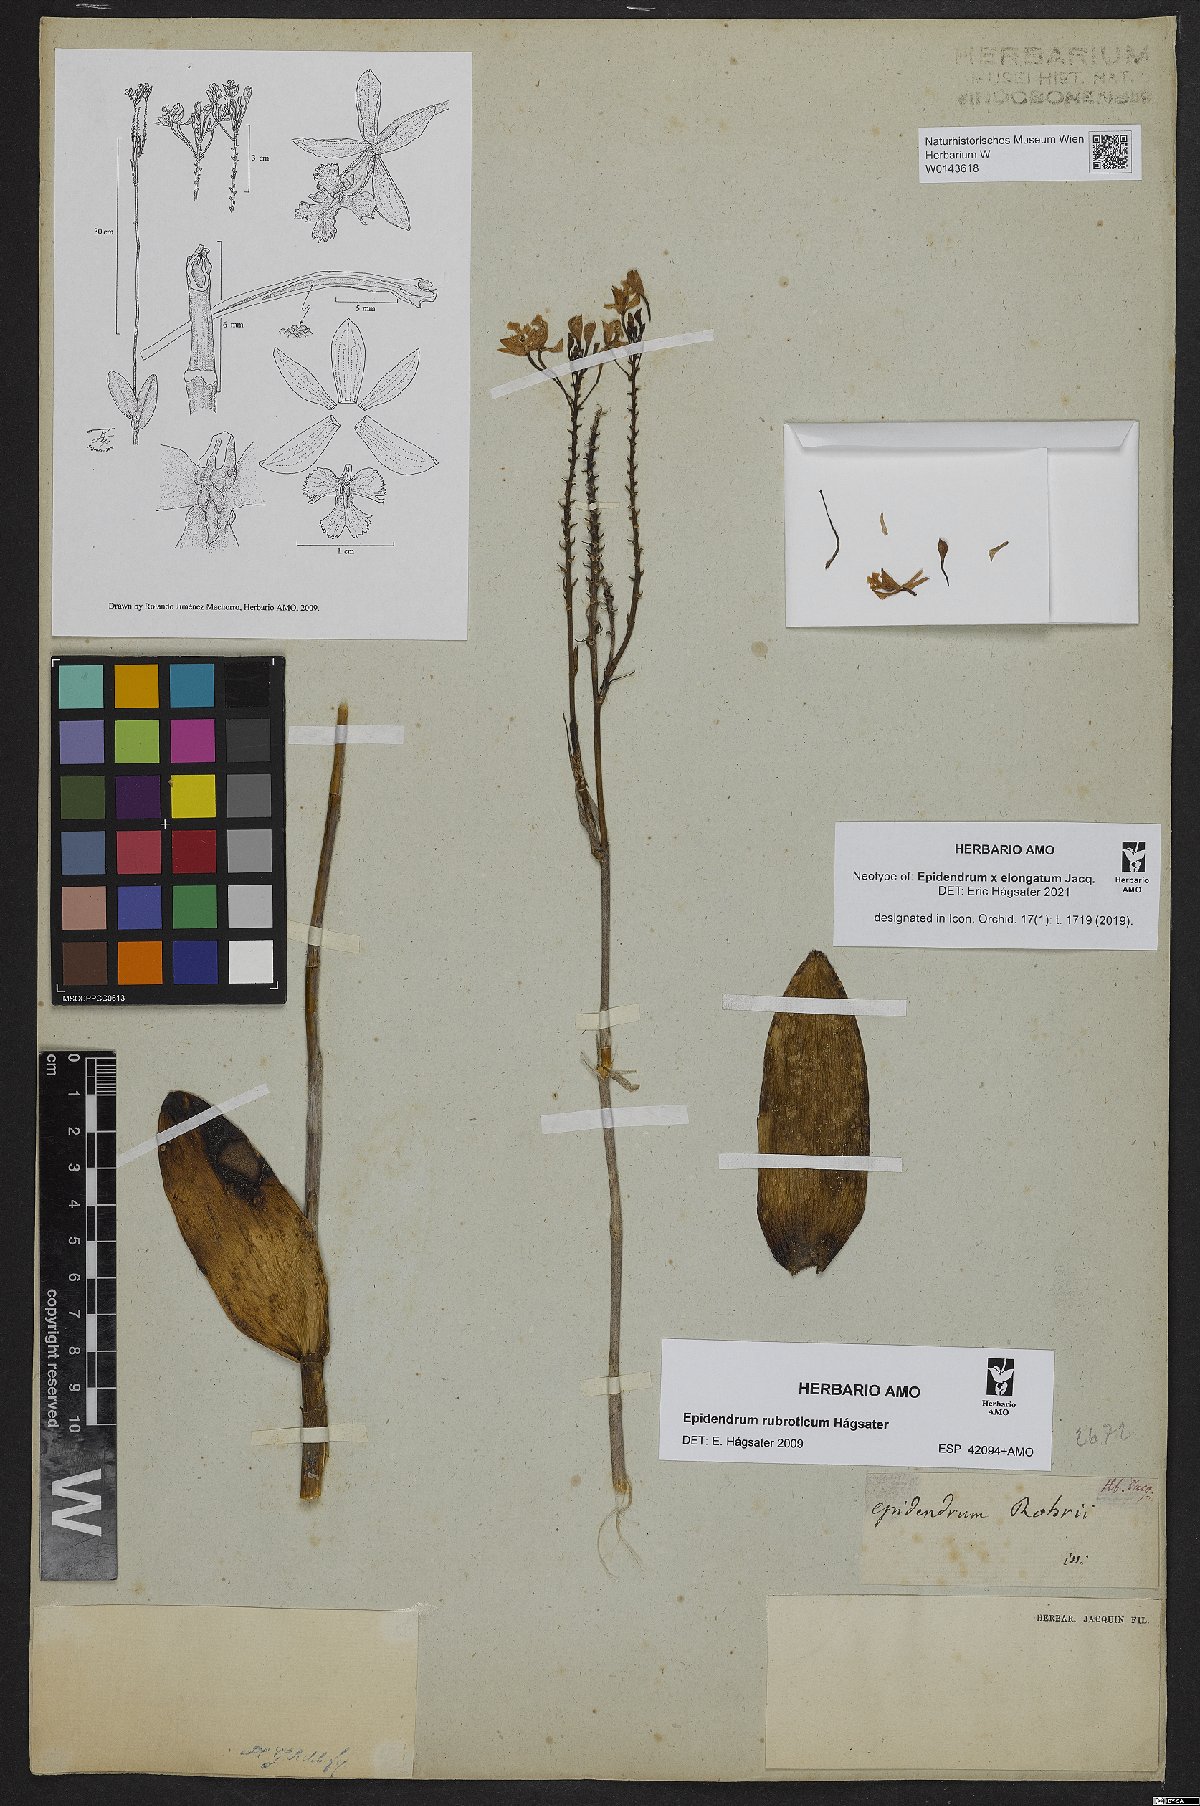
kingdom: Plantae
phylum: Tracheophyta
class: Liliopsida
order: Asparagales
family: Orchidaceae
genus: Epidendrum
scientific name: Epidendrum elongatum
